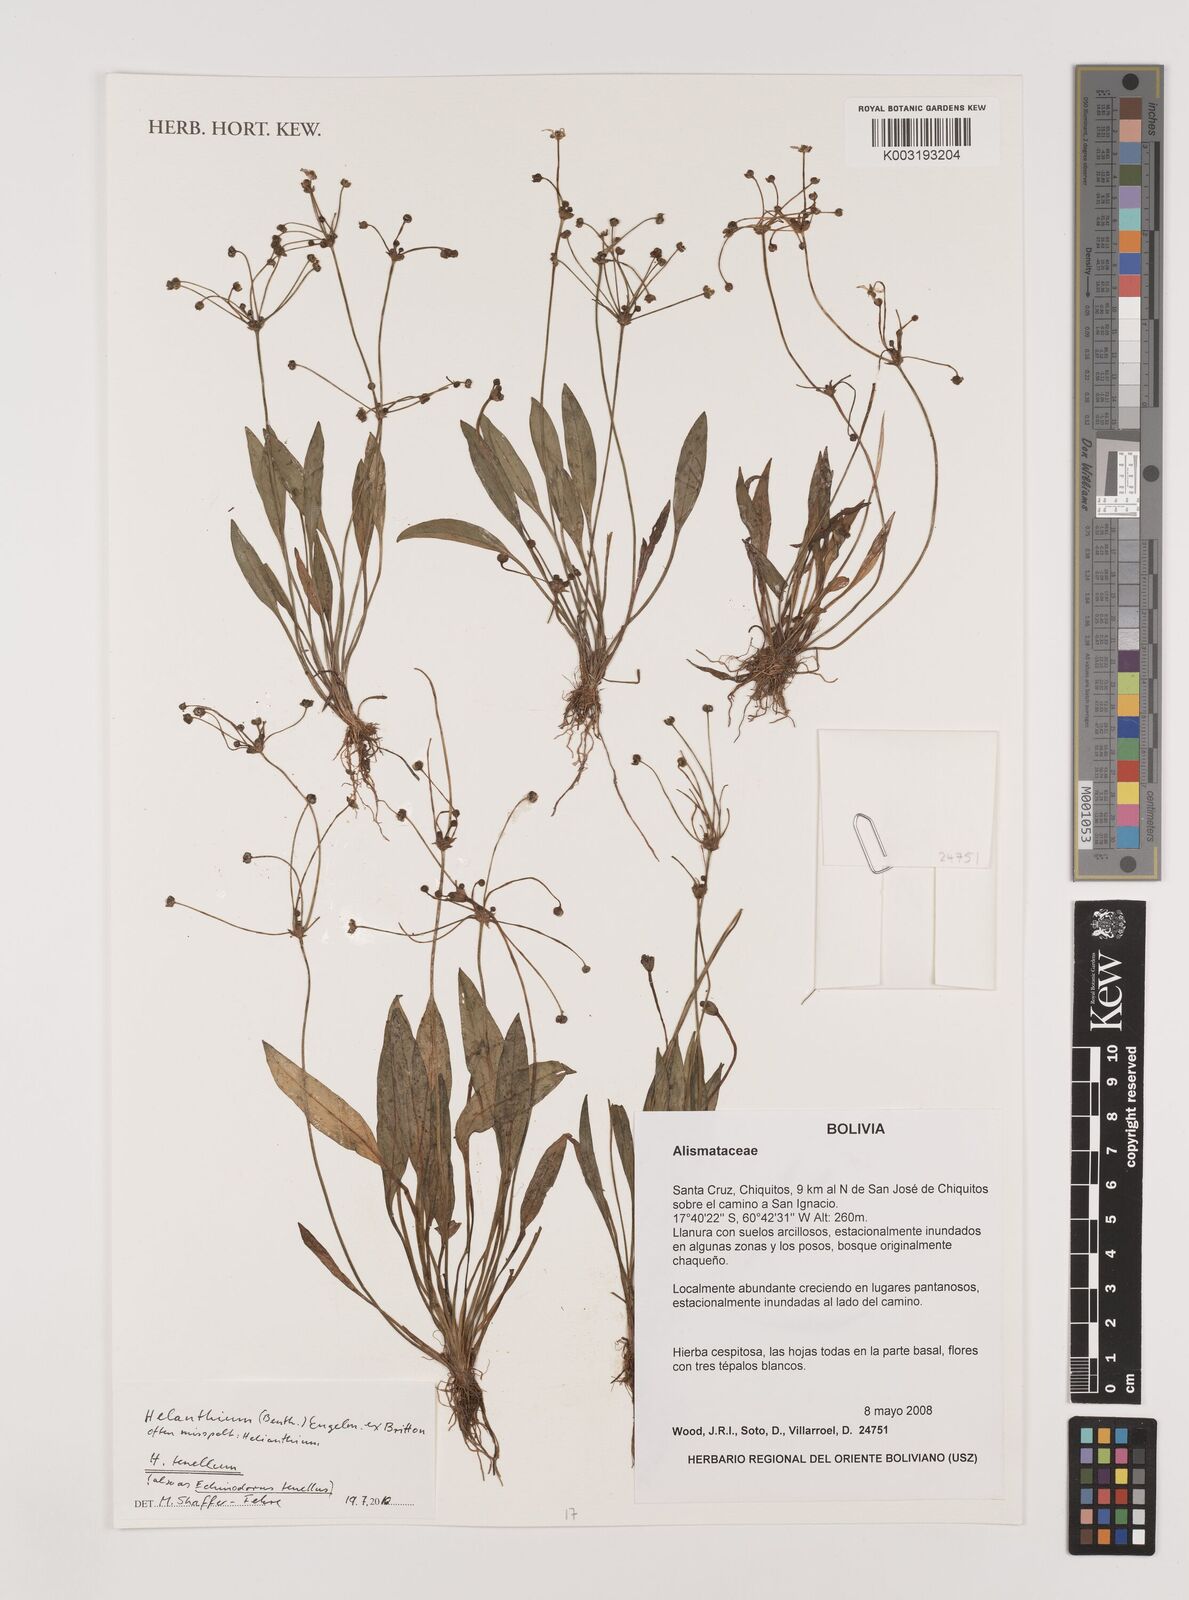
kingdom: Plantae
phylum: Tracheophyta
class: Liliopsida
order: Alismatales
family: Alismataceae
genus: Helanthium
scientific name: Helanthium tenellum
